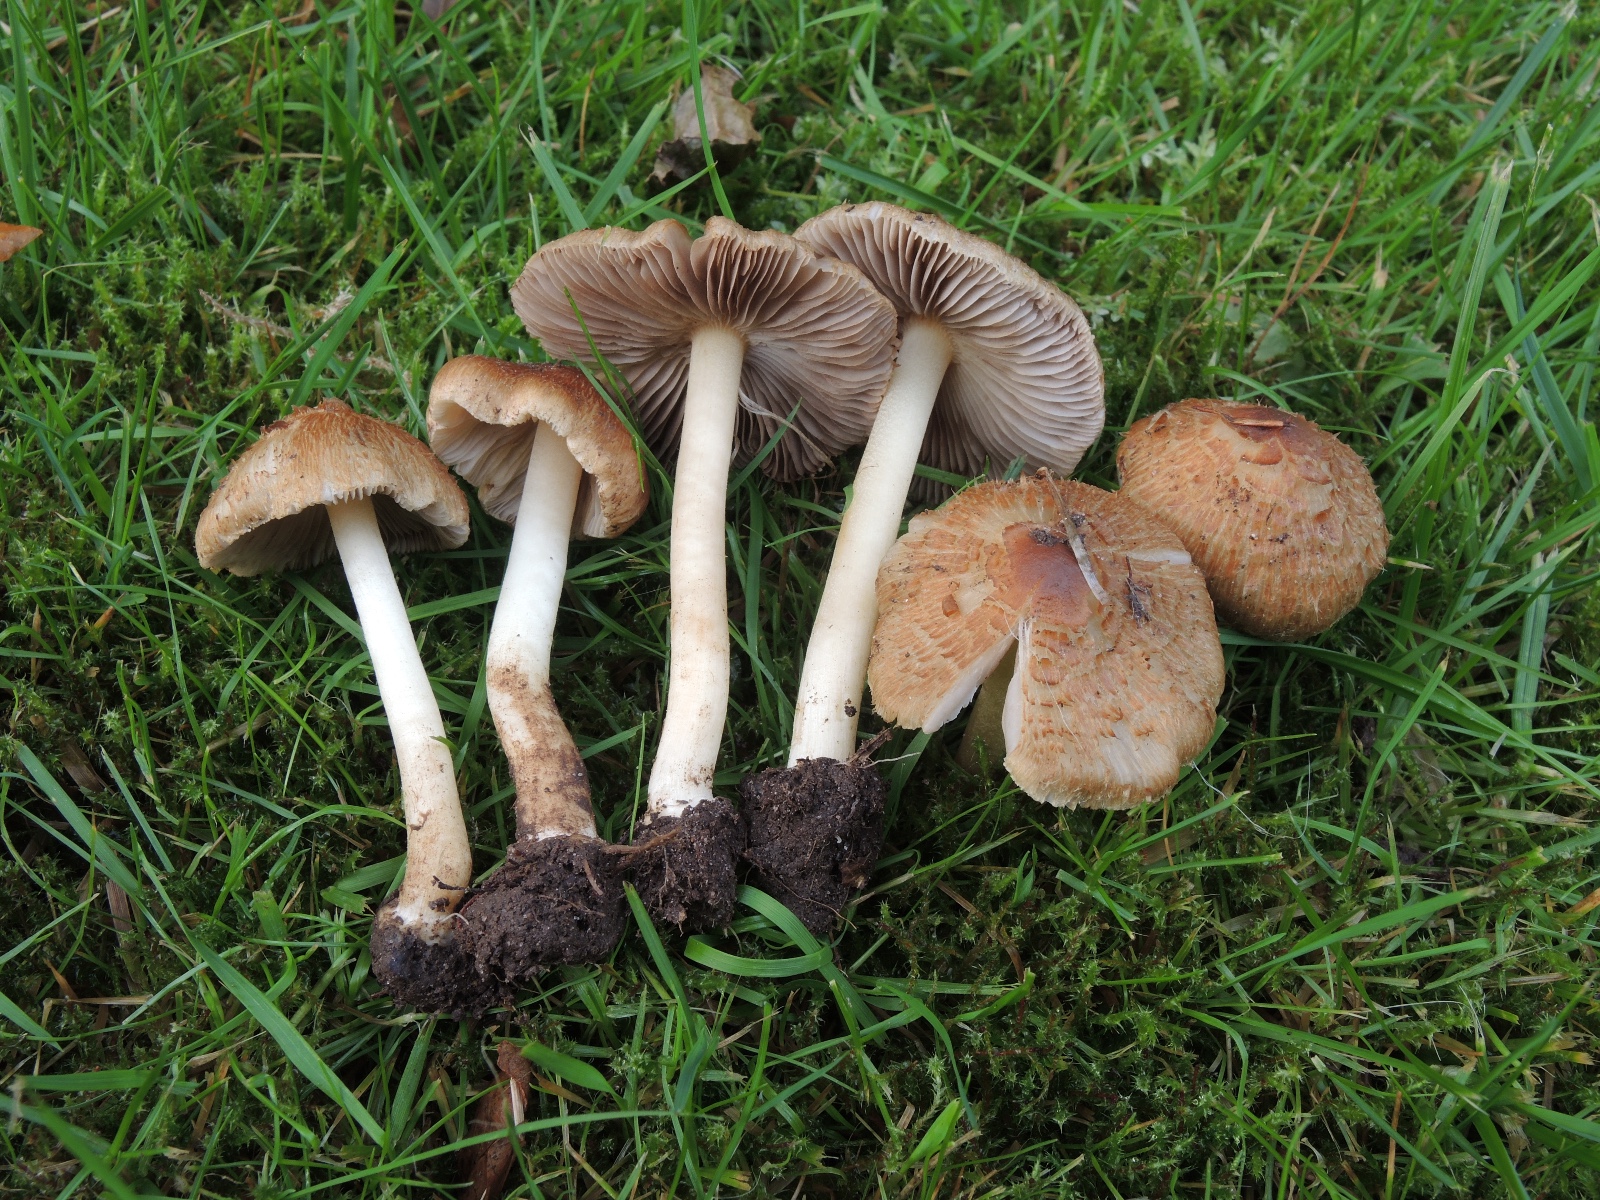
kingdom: Fungi
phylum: Basidiomycota
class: Agaricomycetes
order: Agaricales
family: Inocybaceae
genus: Inocybe
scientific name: Inocybe xanthomelas
